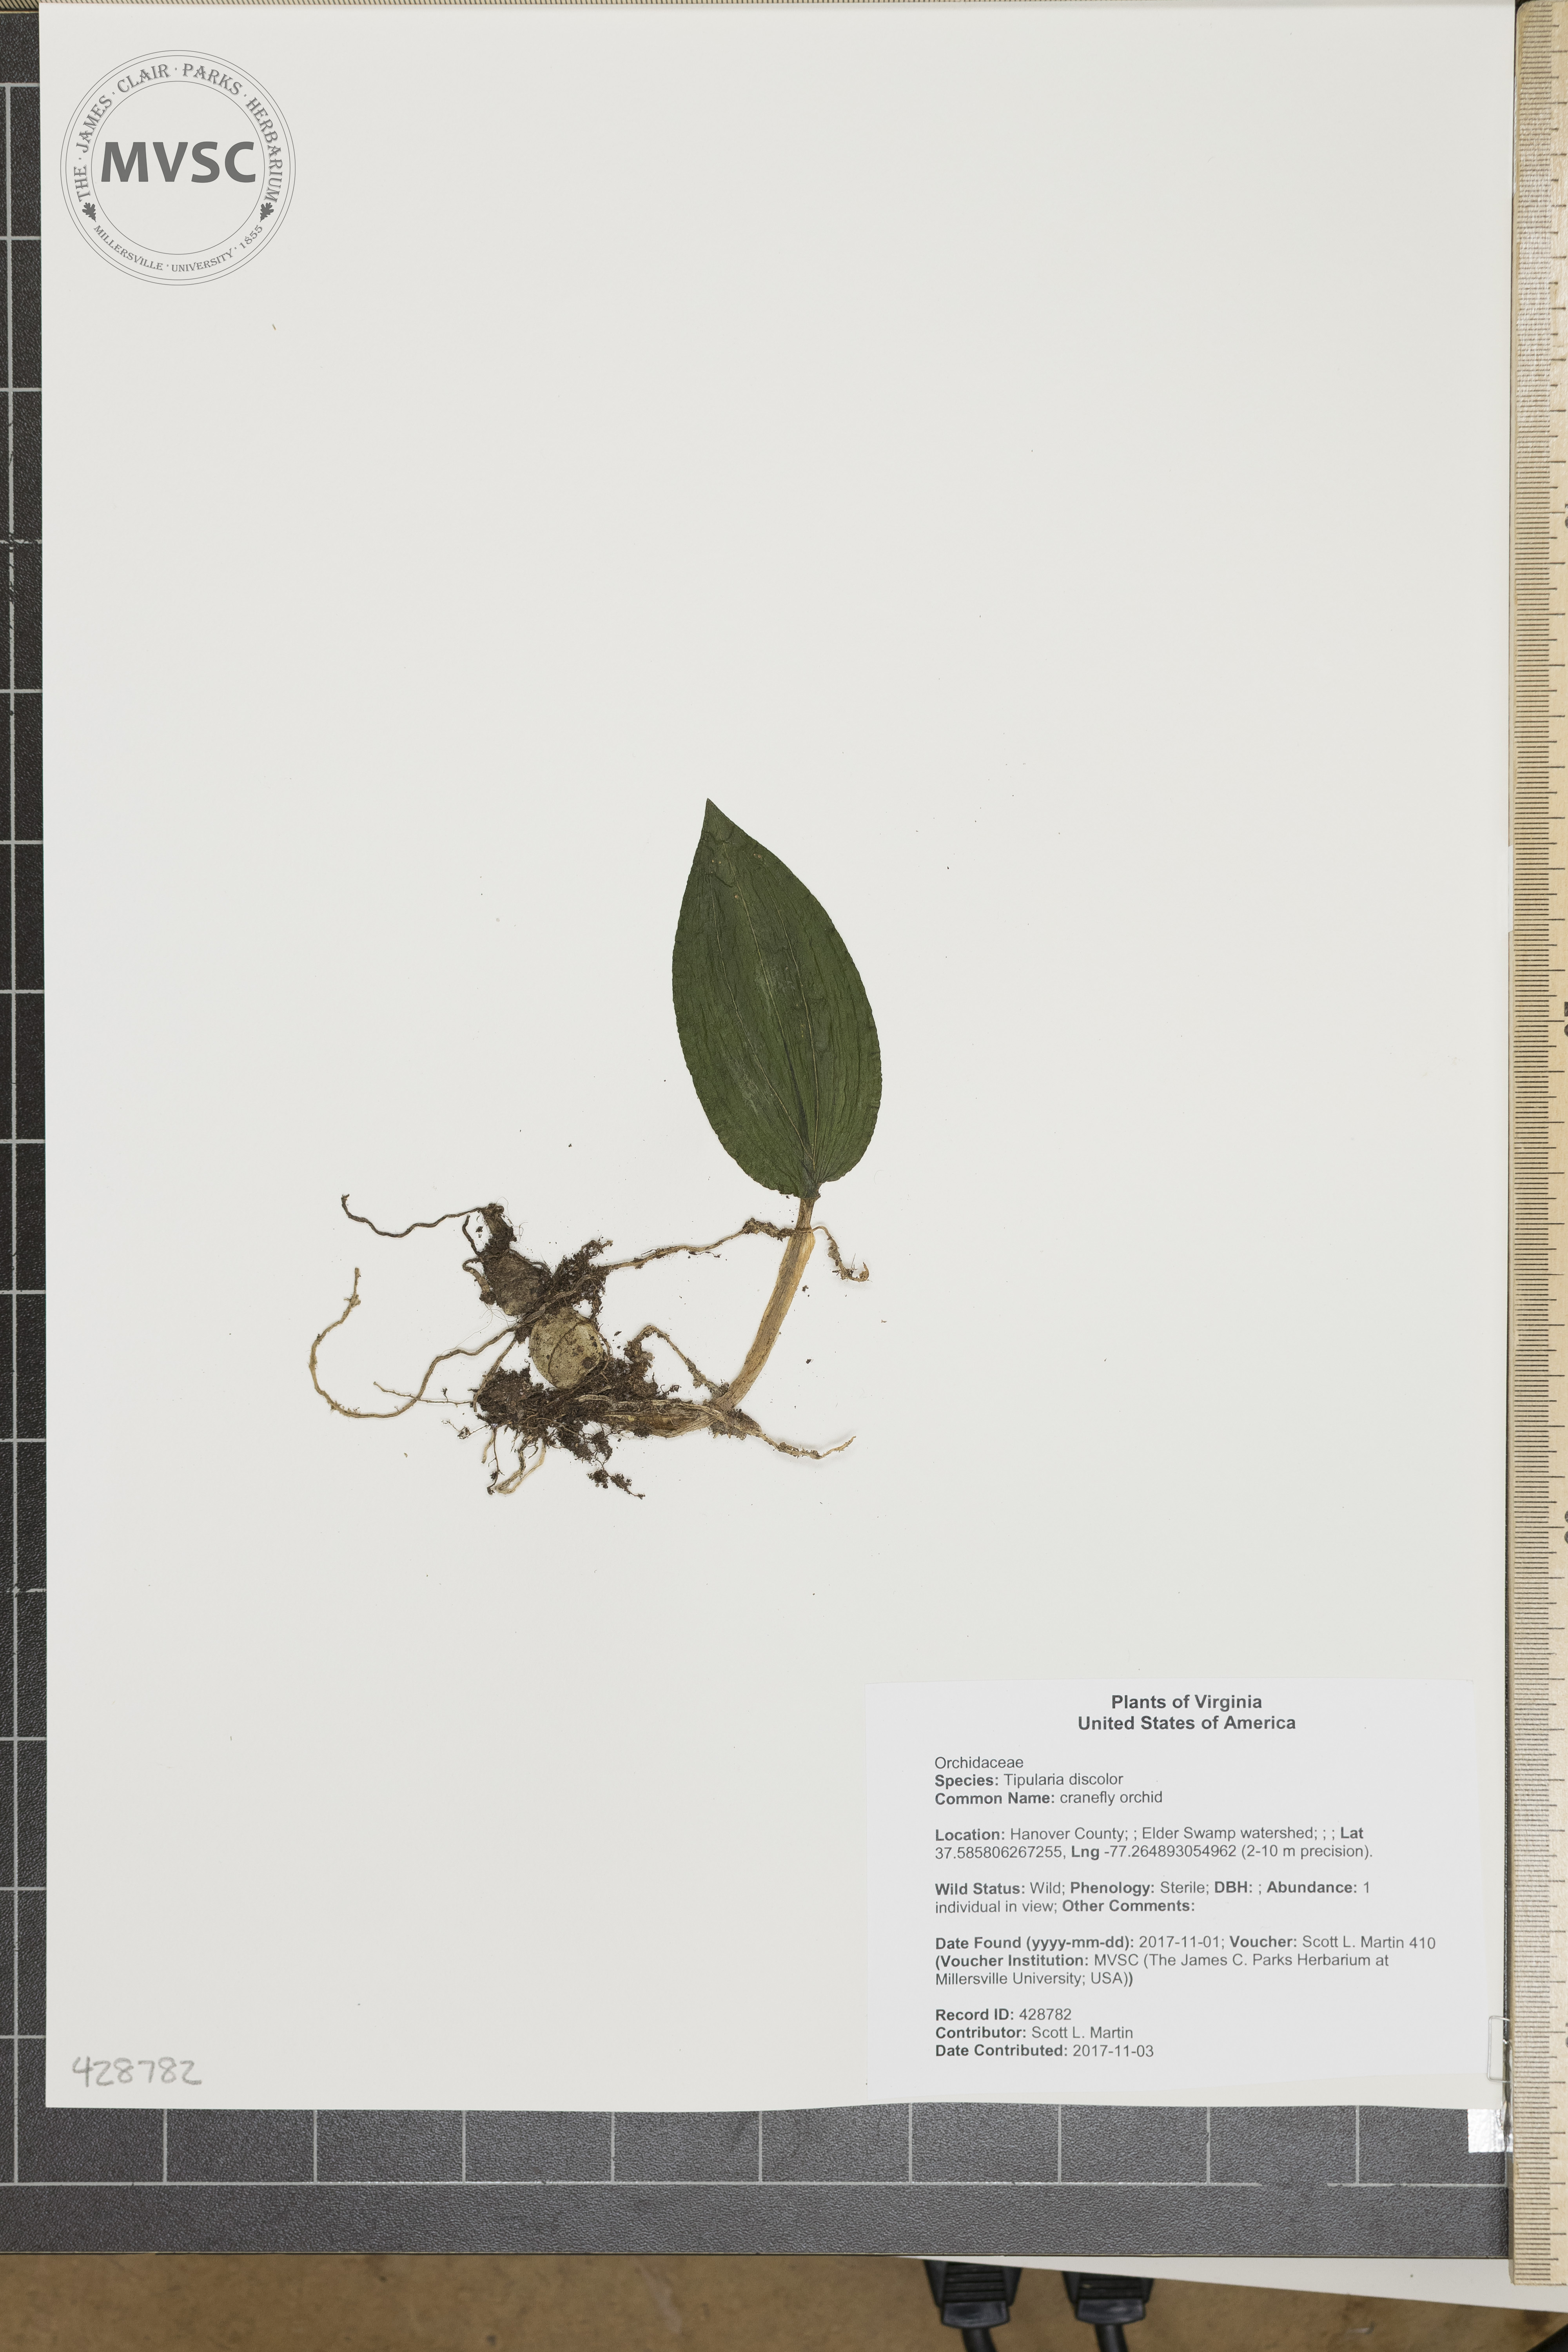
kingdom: Plantae
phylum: Tracheophyta
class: Liliopsida
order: Asparagales
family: Orchidaceae
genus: Tipularia
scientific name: Tipularia discolor
